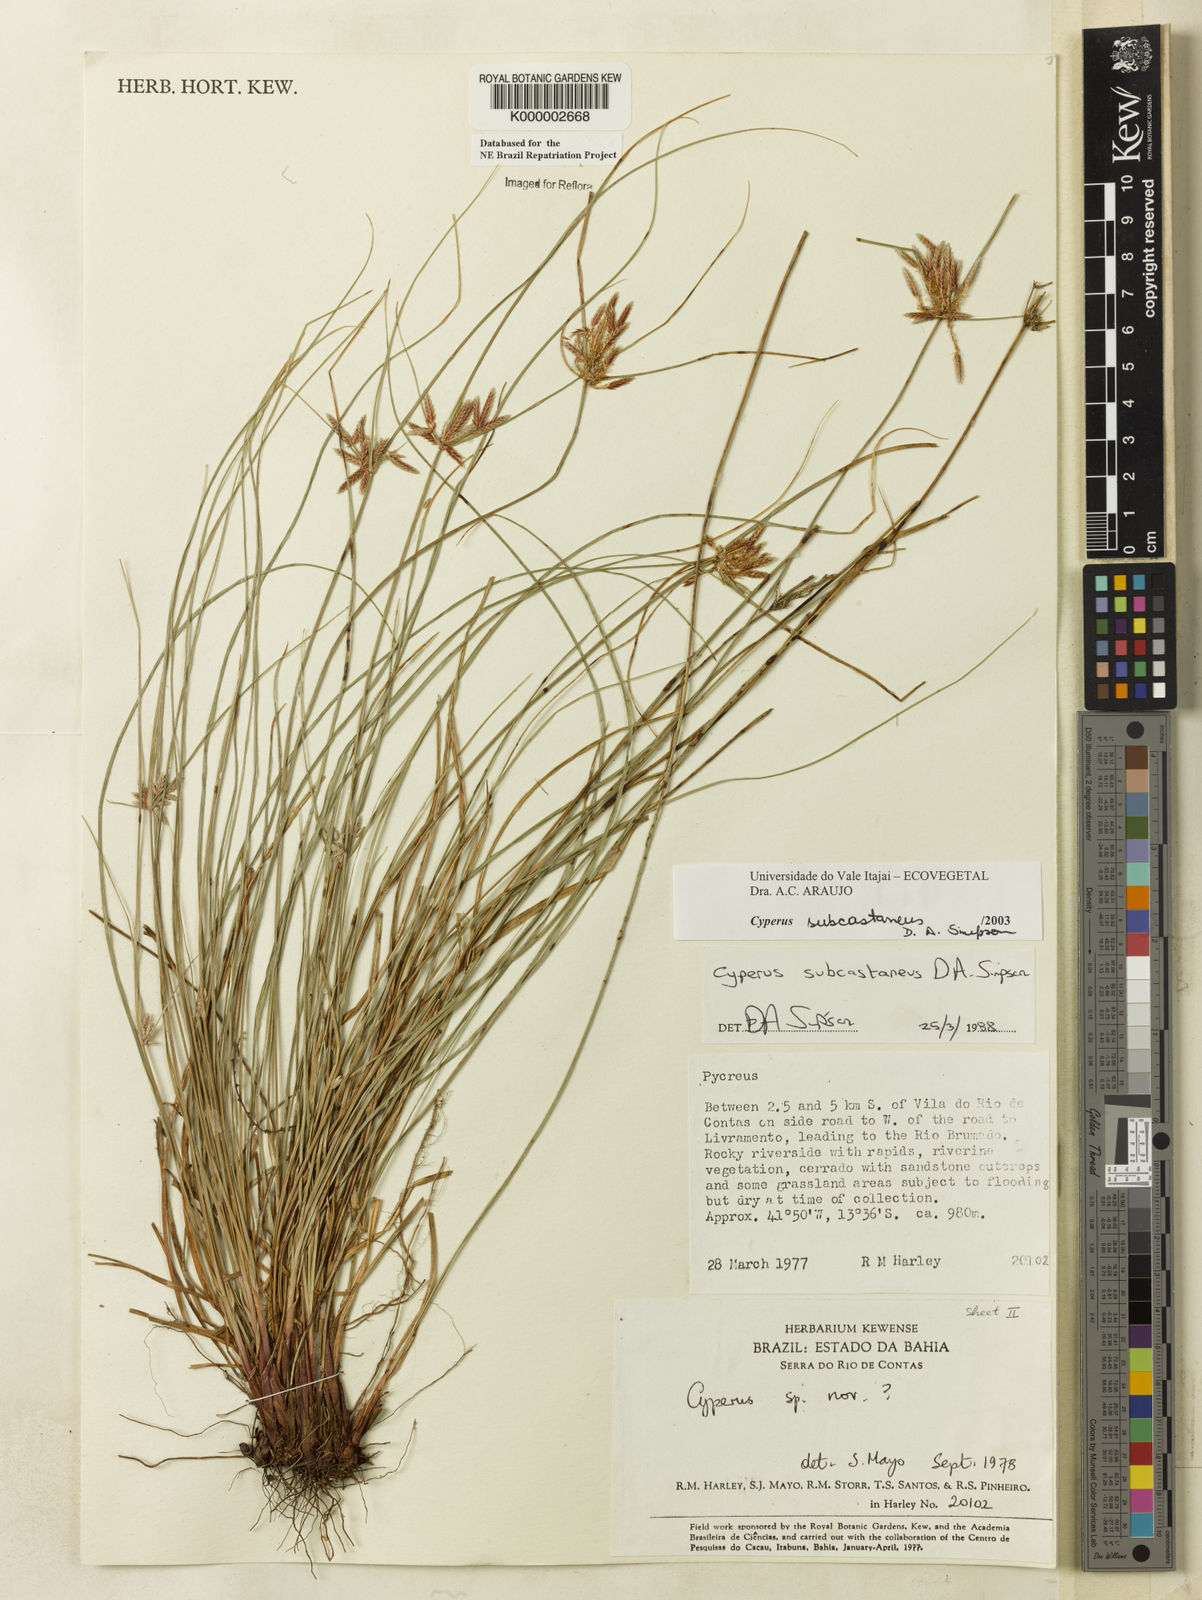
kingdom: Plantae
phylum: Tracheophyta
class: Liliopsida
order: Poales
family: Cyperaceae
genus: Cyperus
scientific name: Cyperus subcastaneus
